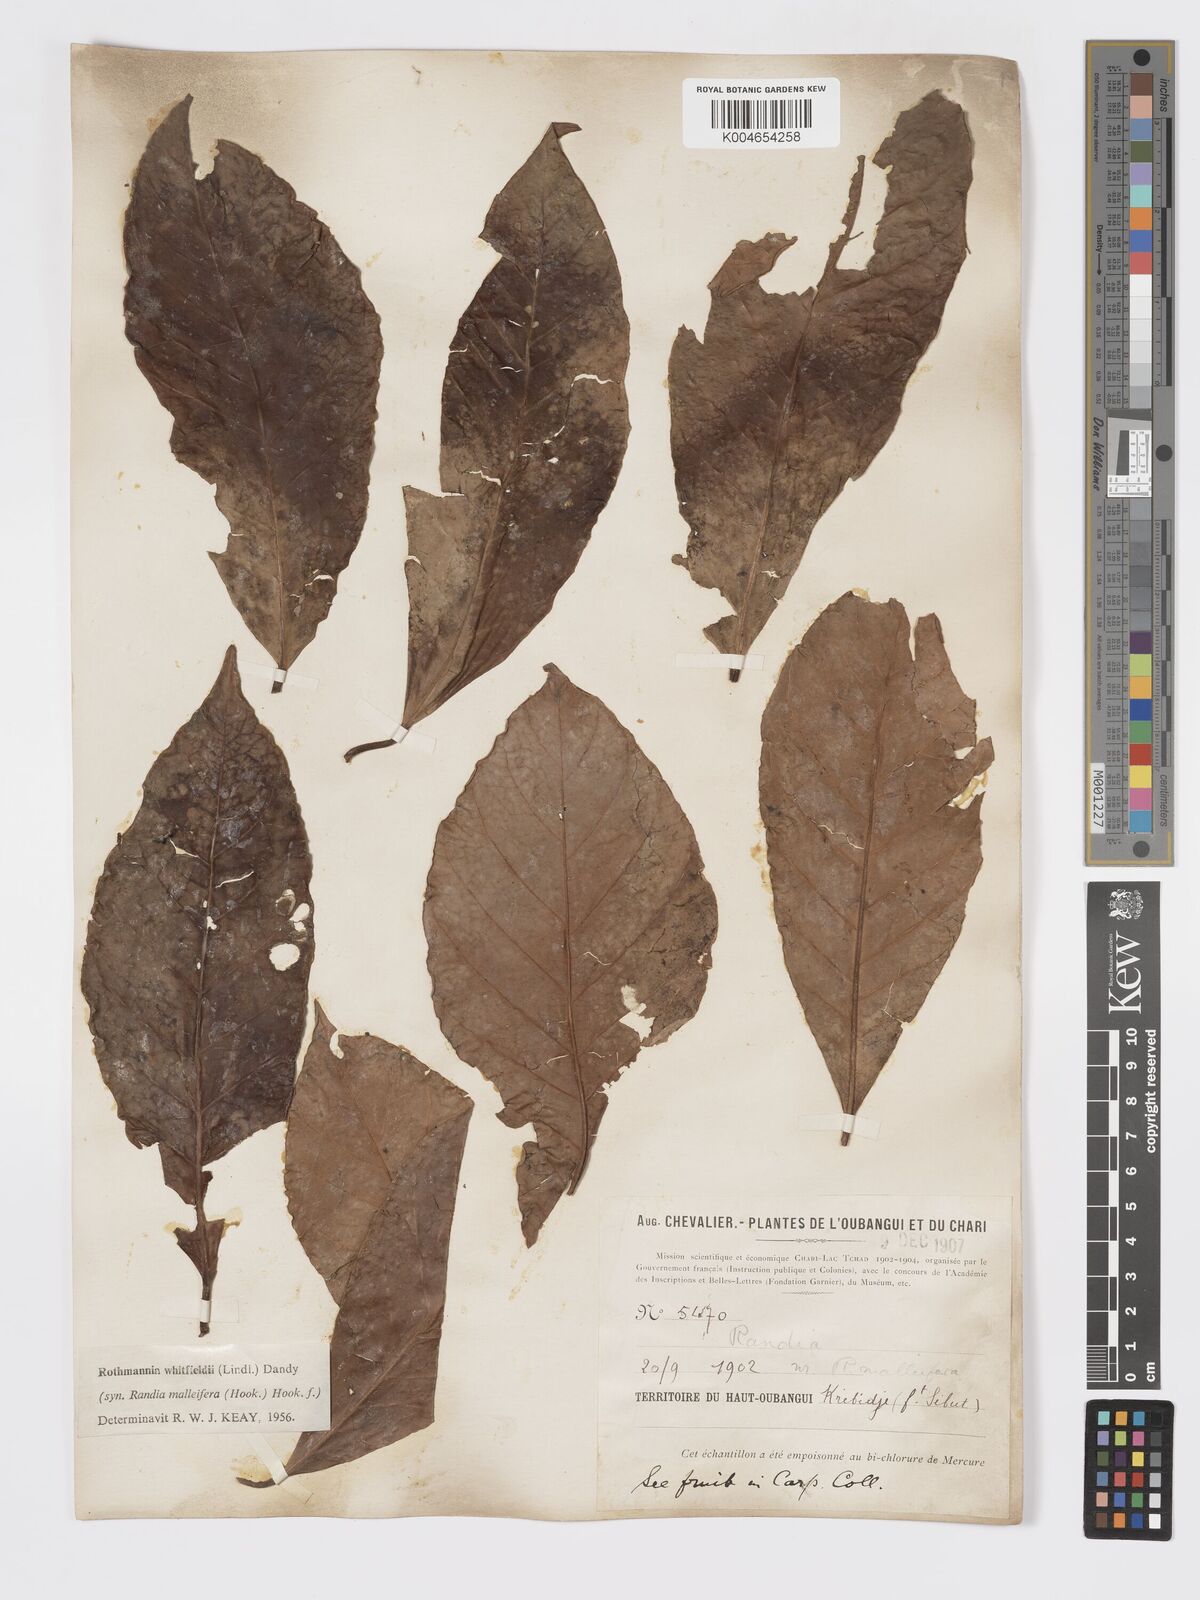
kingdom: Plantae
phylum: Tracheophyta
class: Magnoliopsida
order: Gentianales
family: Rubiaceae
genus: Rothmannia
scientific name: Rothmannia whitfieldii
